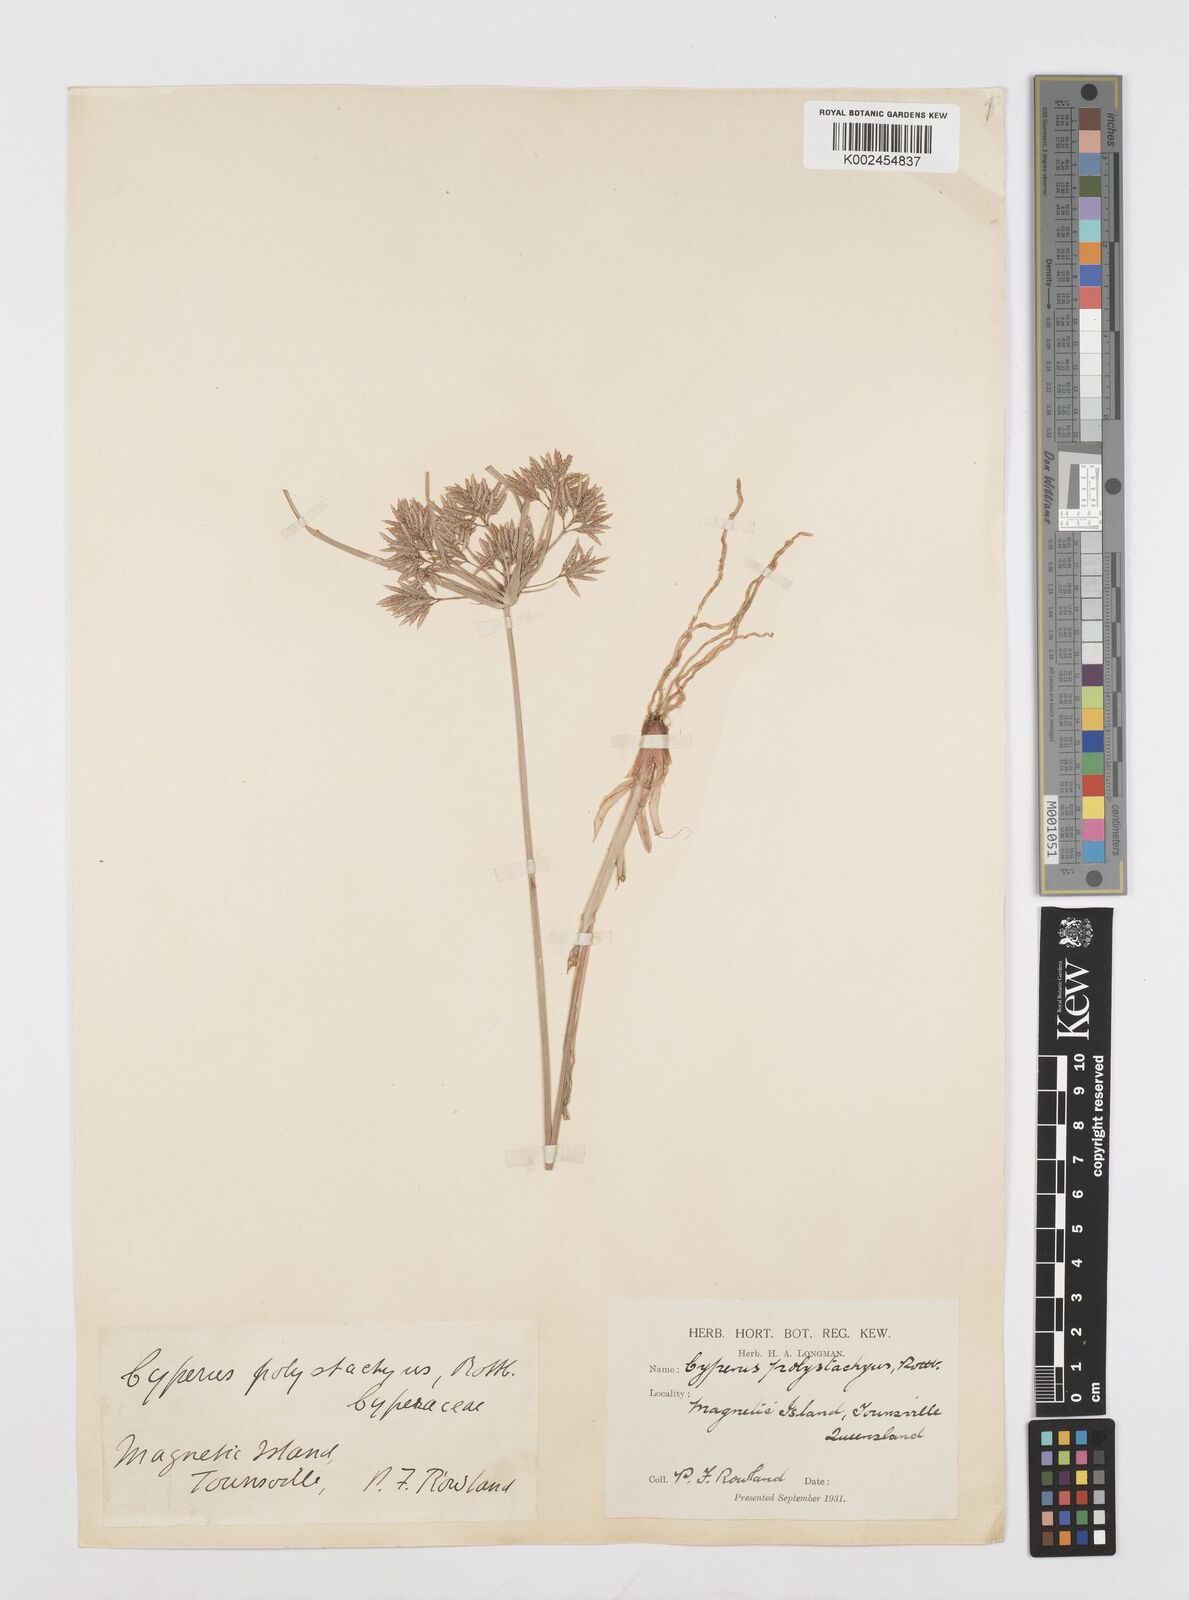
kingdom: Plantae
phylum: Tracheophyta
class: Liliopsida
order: Poales
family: Cyperaceae
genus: Cyperus
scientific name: Cyperus polystachyos
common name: Bunchy flat sedge
